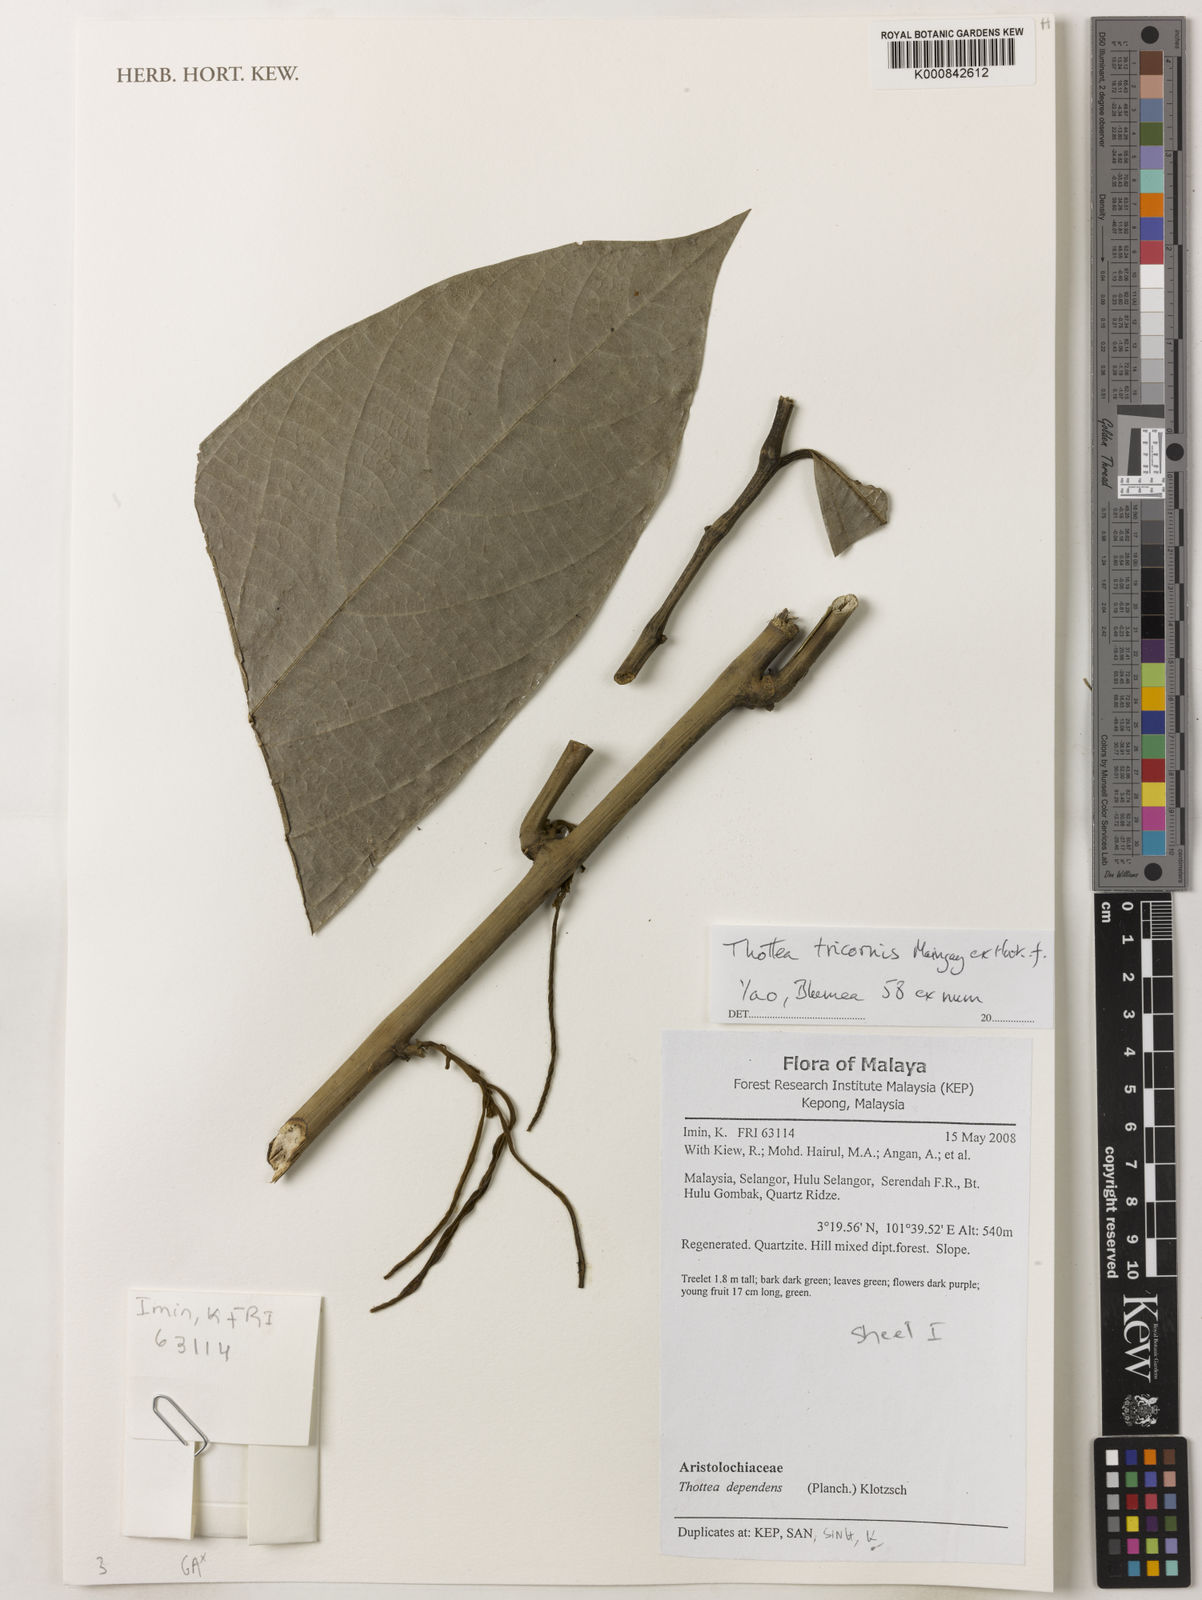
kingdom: Plantae
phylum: Tracheophyta
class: Magnoliopsida
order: Piperales
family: Aristolochiaceae
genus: Thottea
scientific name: Thottea tricornis
